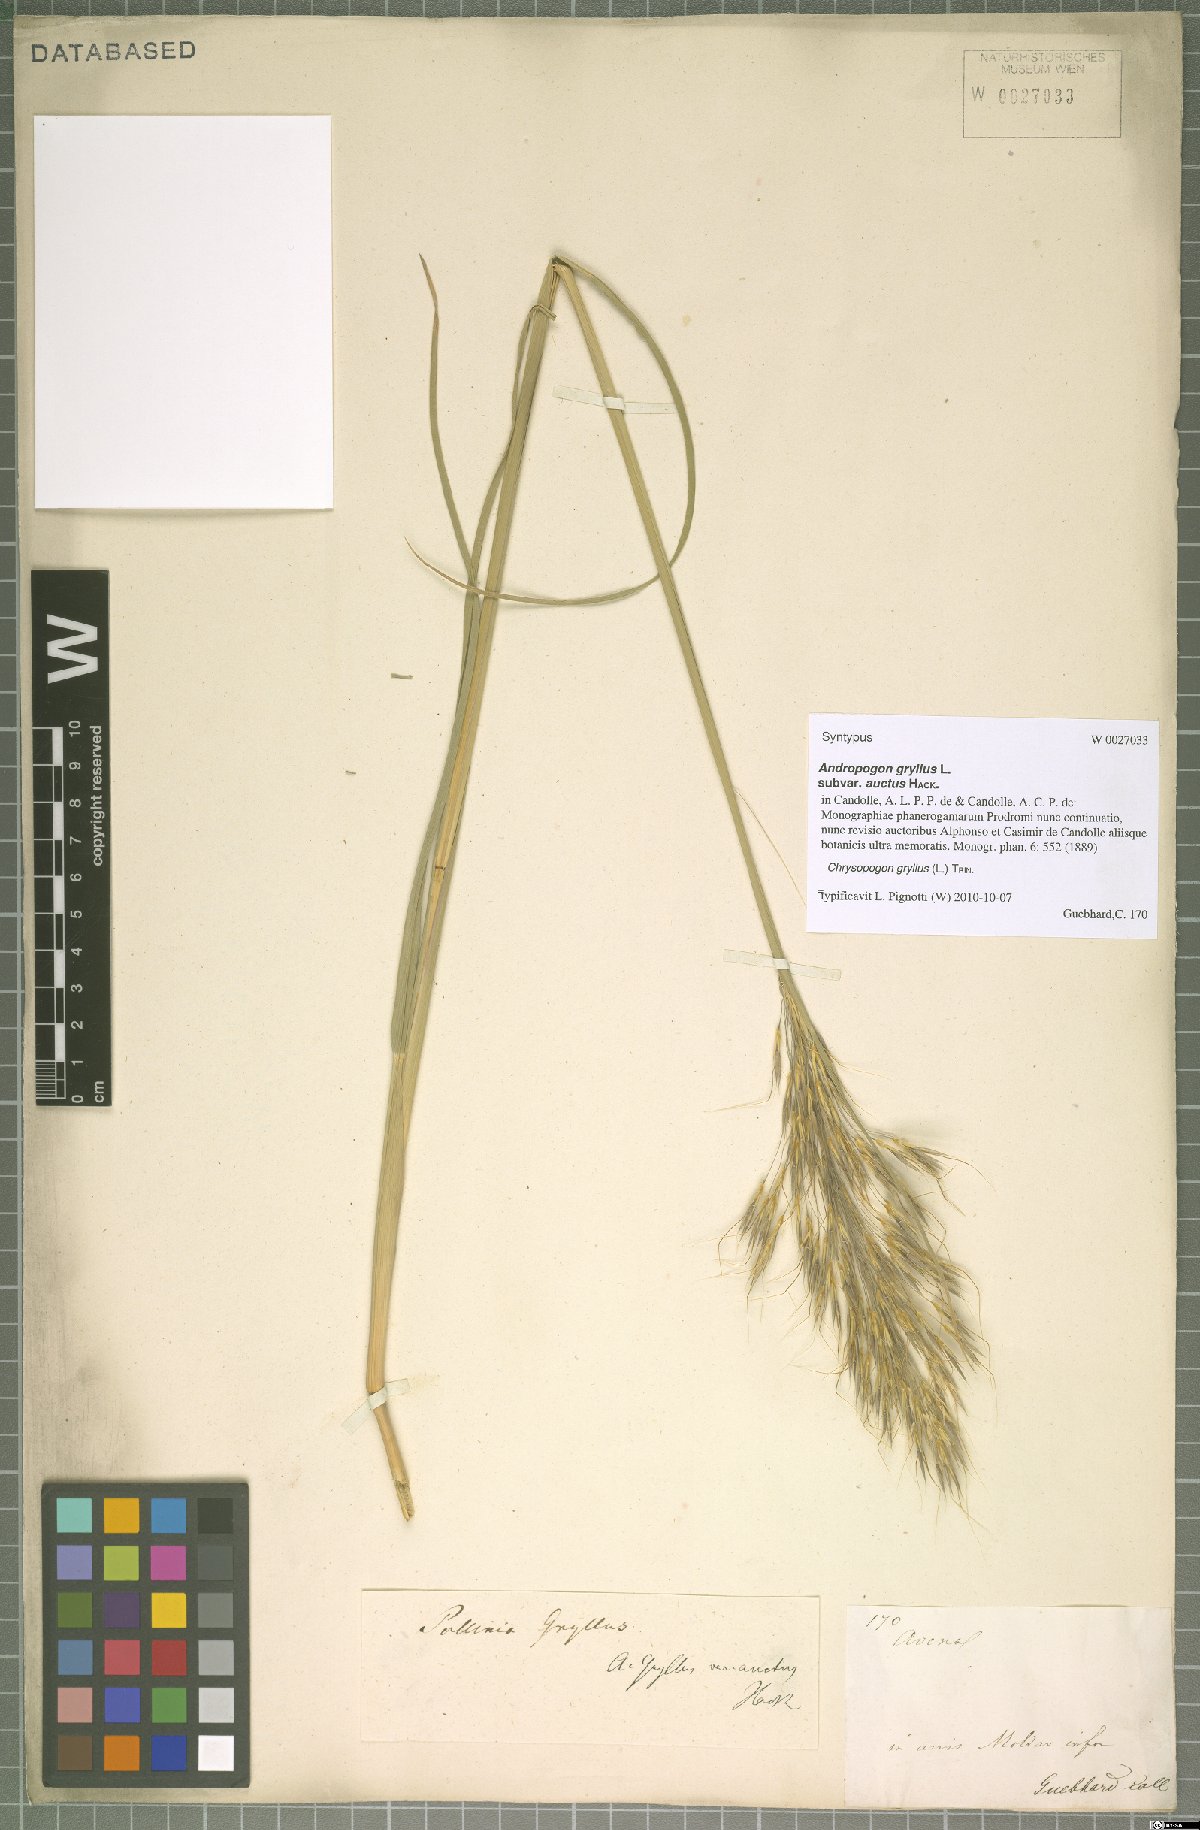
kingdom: Plantae
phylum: Tracheophyta
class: Liliopsida
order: Poales
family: Poaceae
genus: Chrysopogon
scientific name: Chrysopogon gryllus
